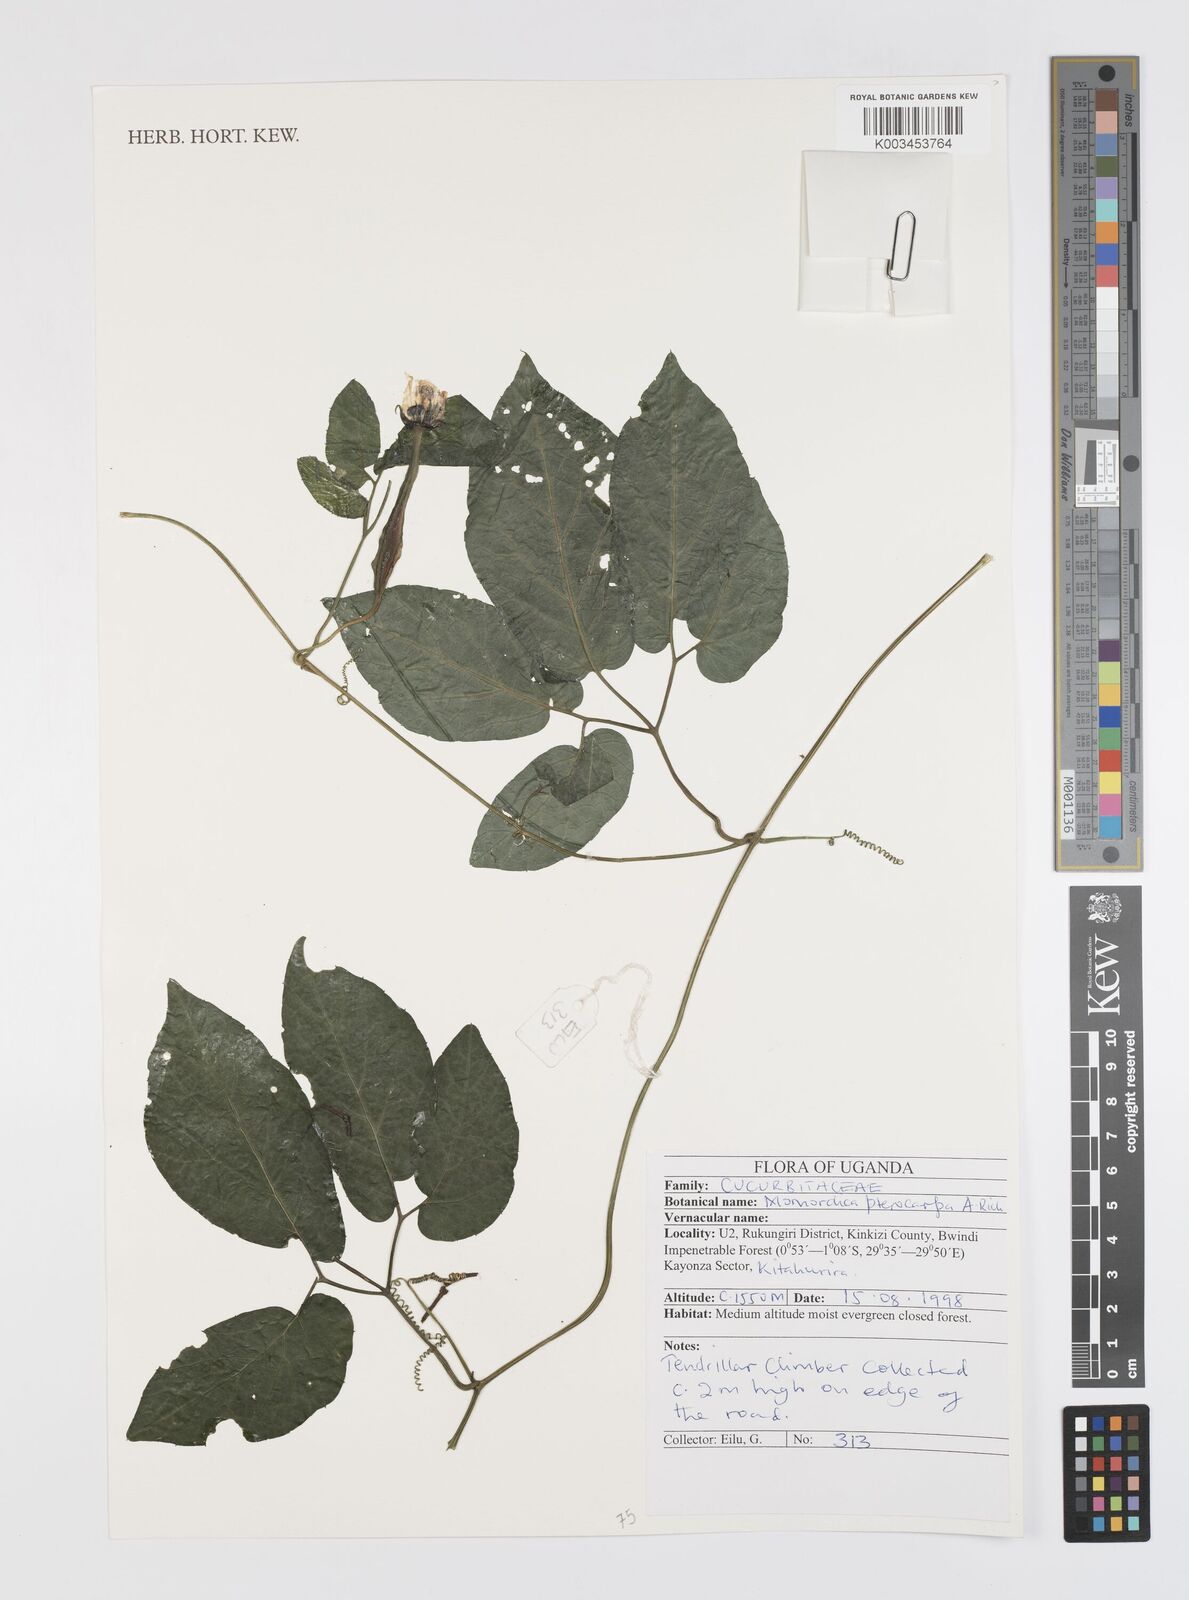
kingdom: Plantae
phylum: Tracheophyta
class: Magnoliopsida
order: Cucurbitales
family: Cucurbitaceae
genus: Momordica
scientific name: Momordica pterocarpa
